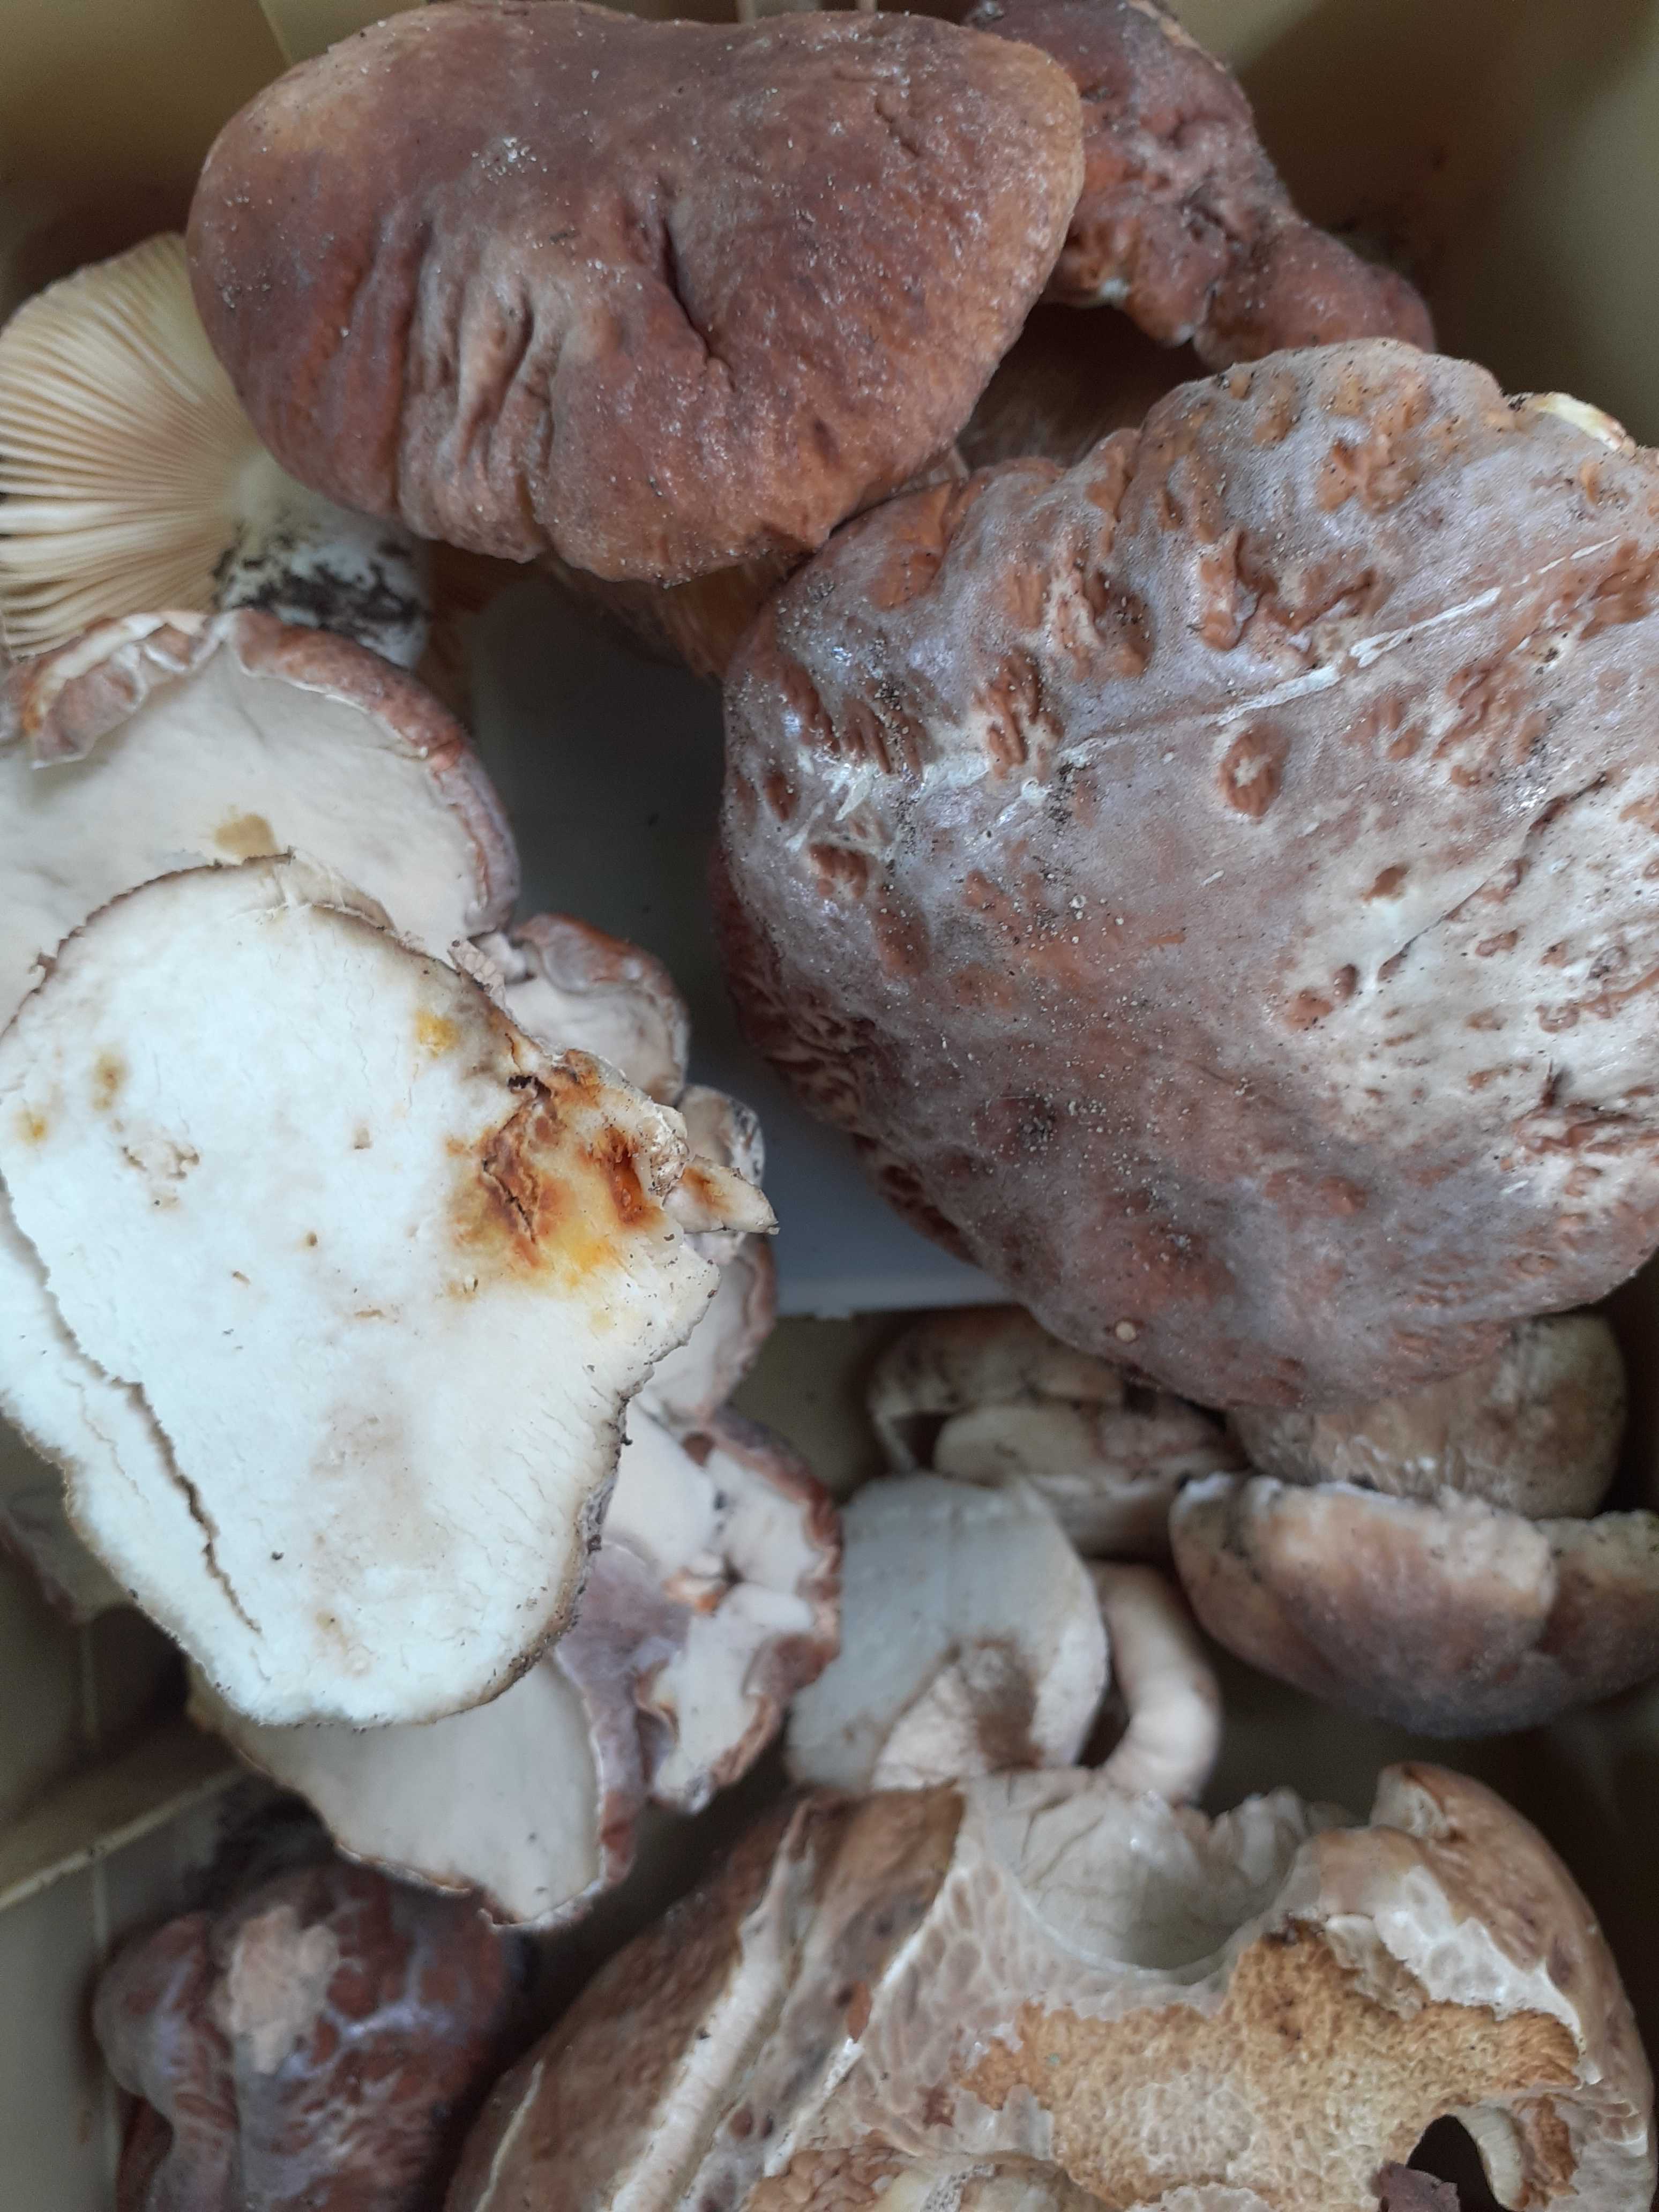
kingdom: Fungi
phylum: Basidiomycota
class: Agaricomycetes
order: Boletales
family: Boletaceae
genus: Boletus
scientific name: Boletus reticulatus
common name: sommer-rørhat
